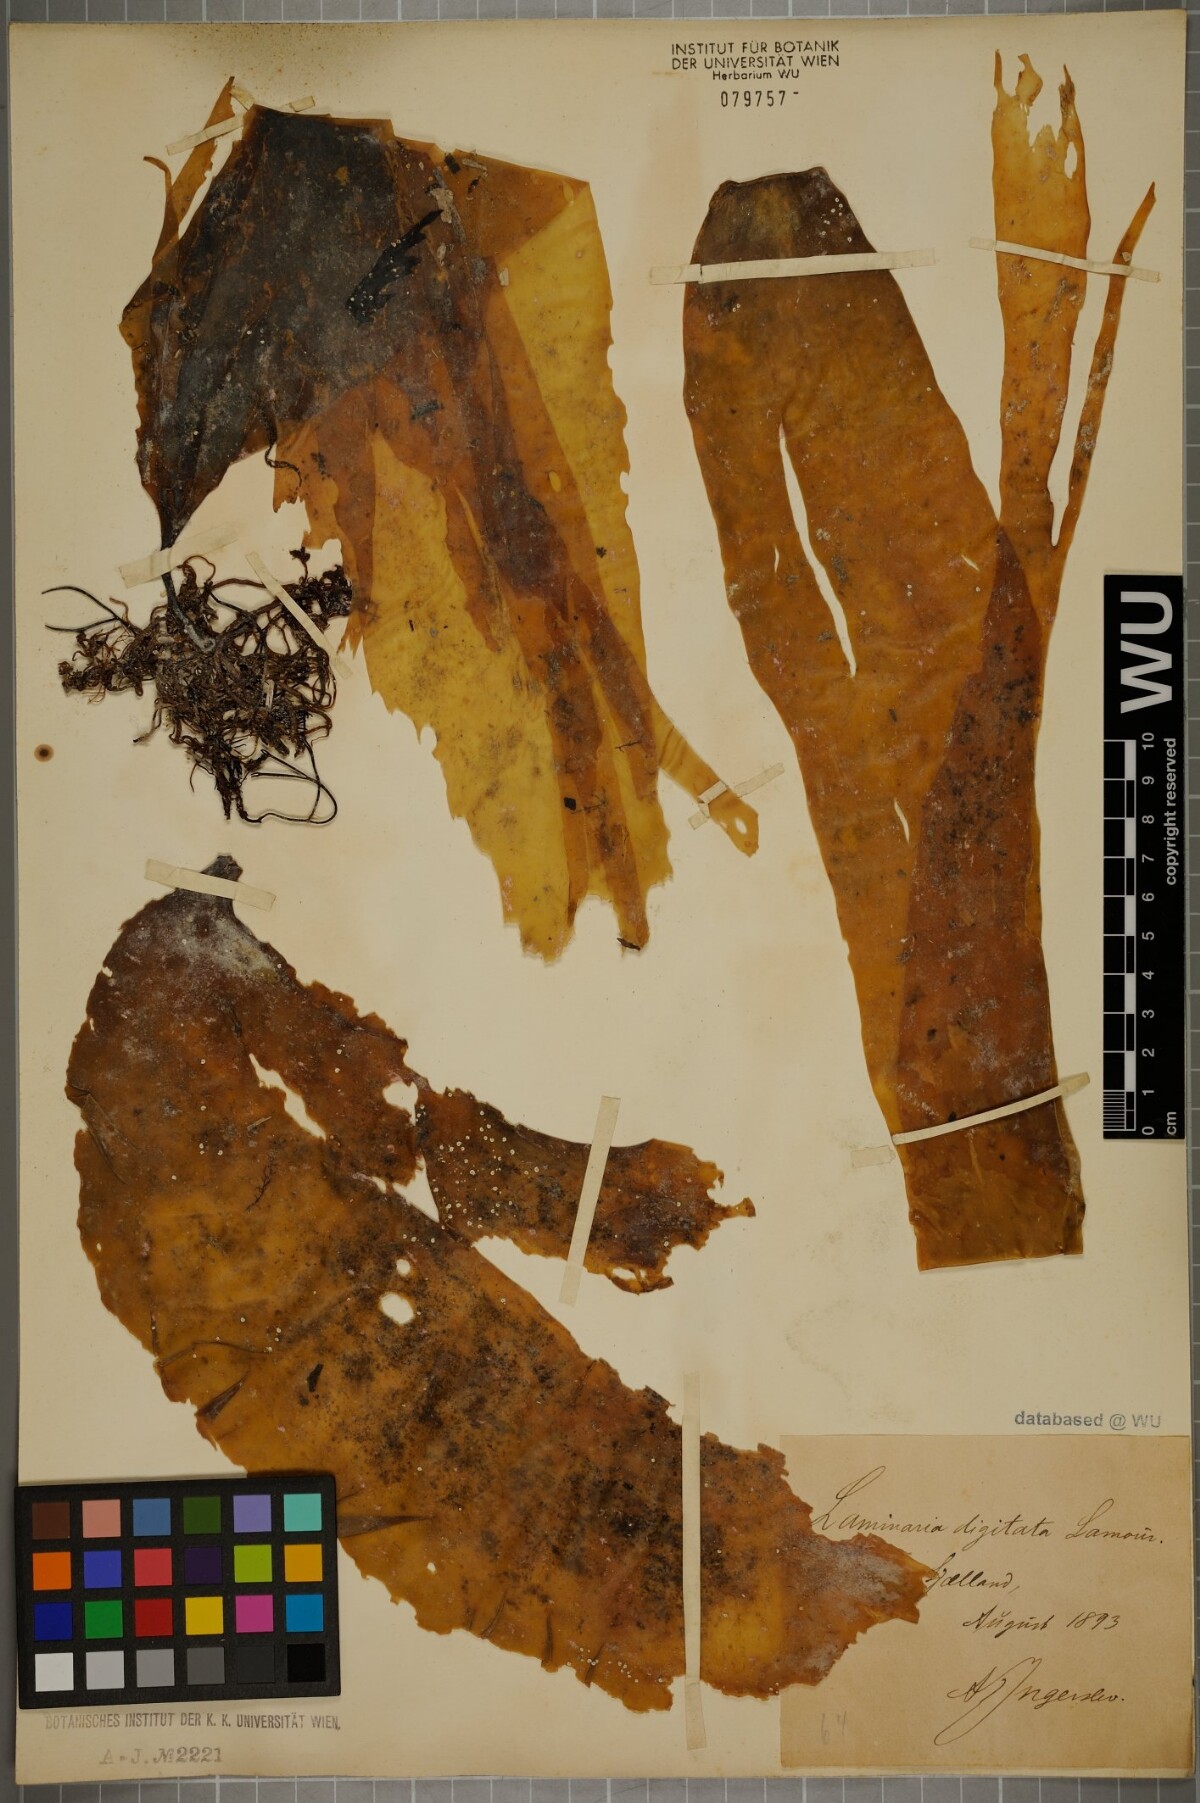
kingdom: Chromista
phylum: Ochrophyta
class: Phaeophyceae
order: Laminariales
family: Laminariaceae
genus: Laminaria
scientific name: Laminaria digitata
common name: Oarweed
